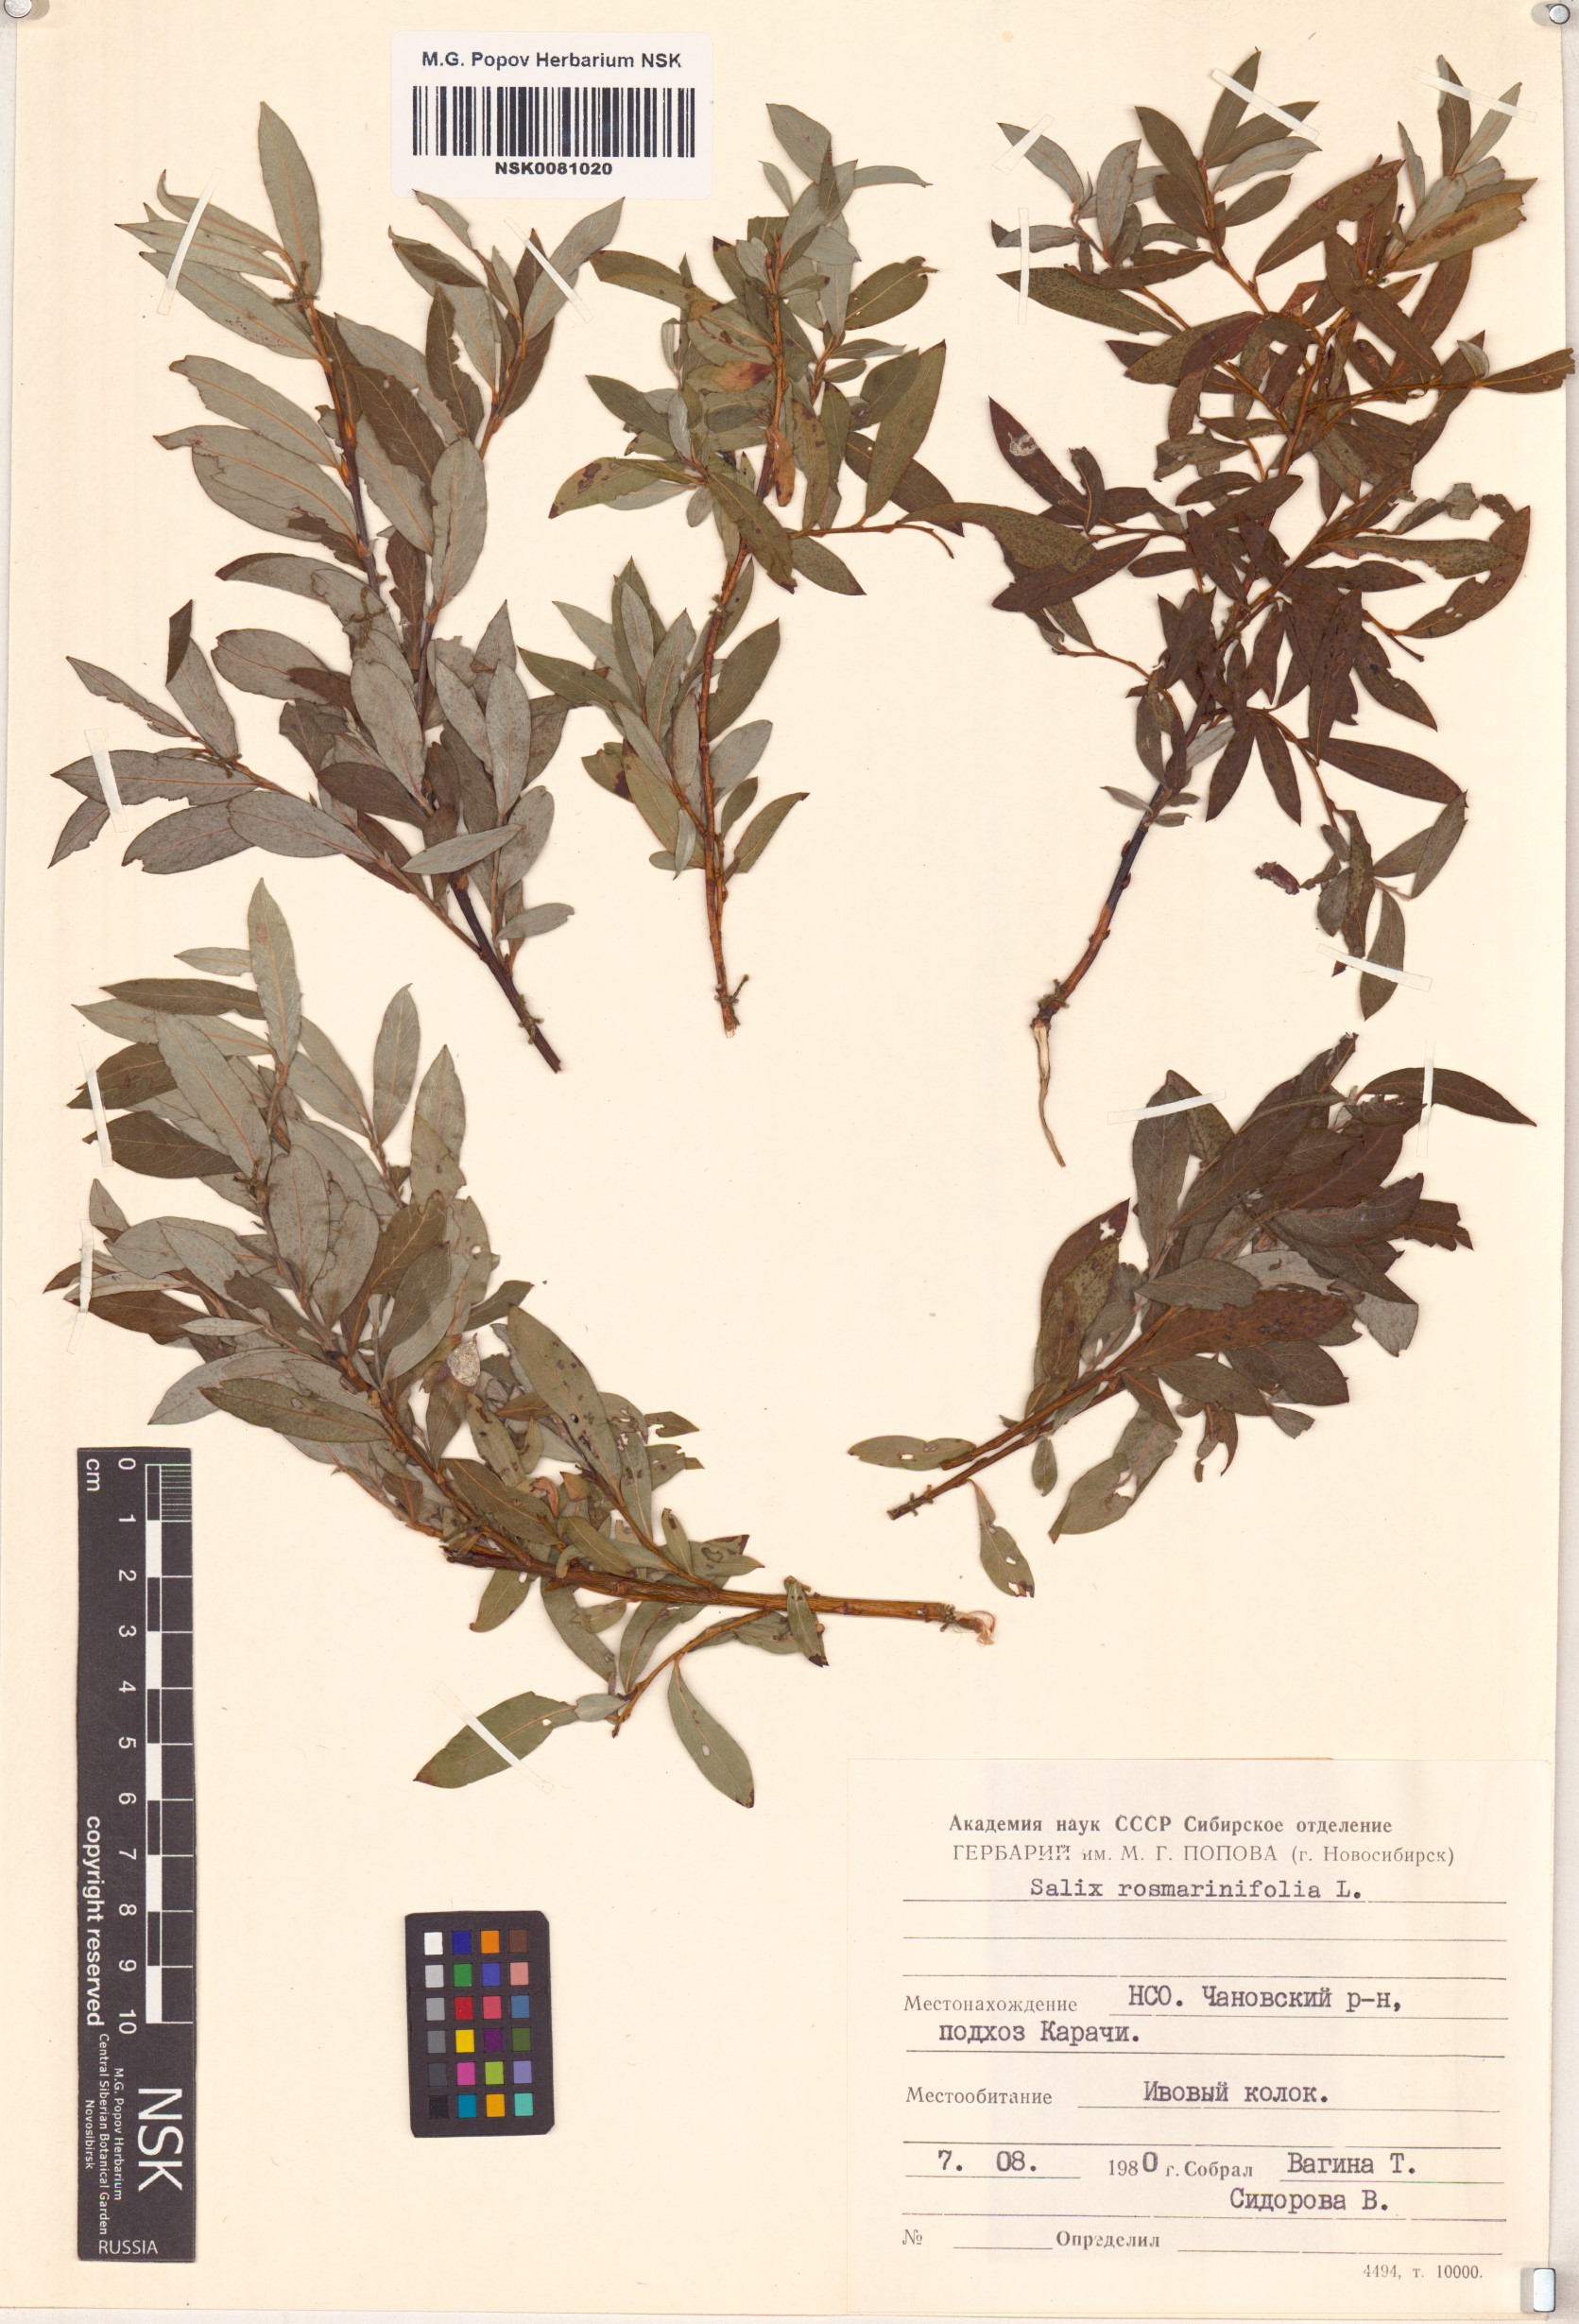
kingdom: Plantae
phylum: Tracheophyta
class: Magnoliopsida
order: Malpighiales
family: Salicaceae
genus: Salix
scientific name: Salix rosmarinifolia
